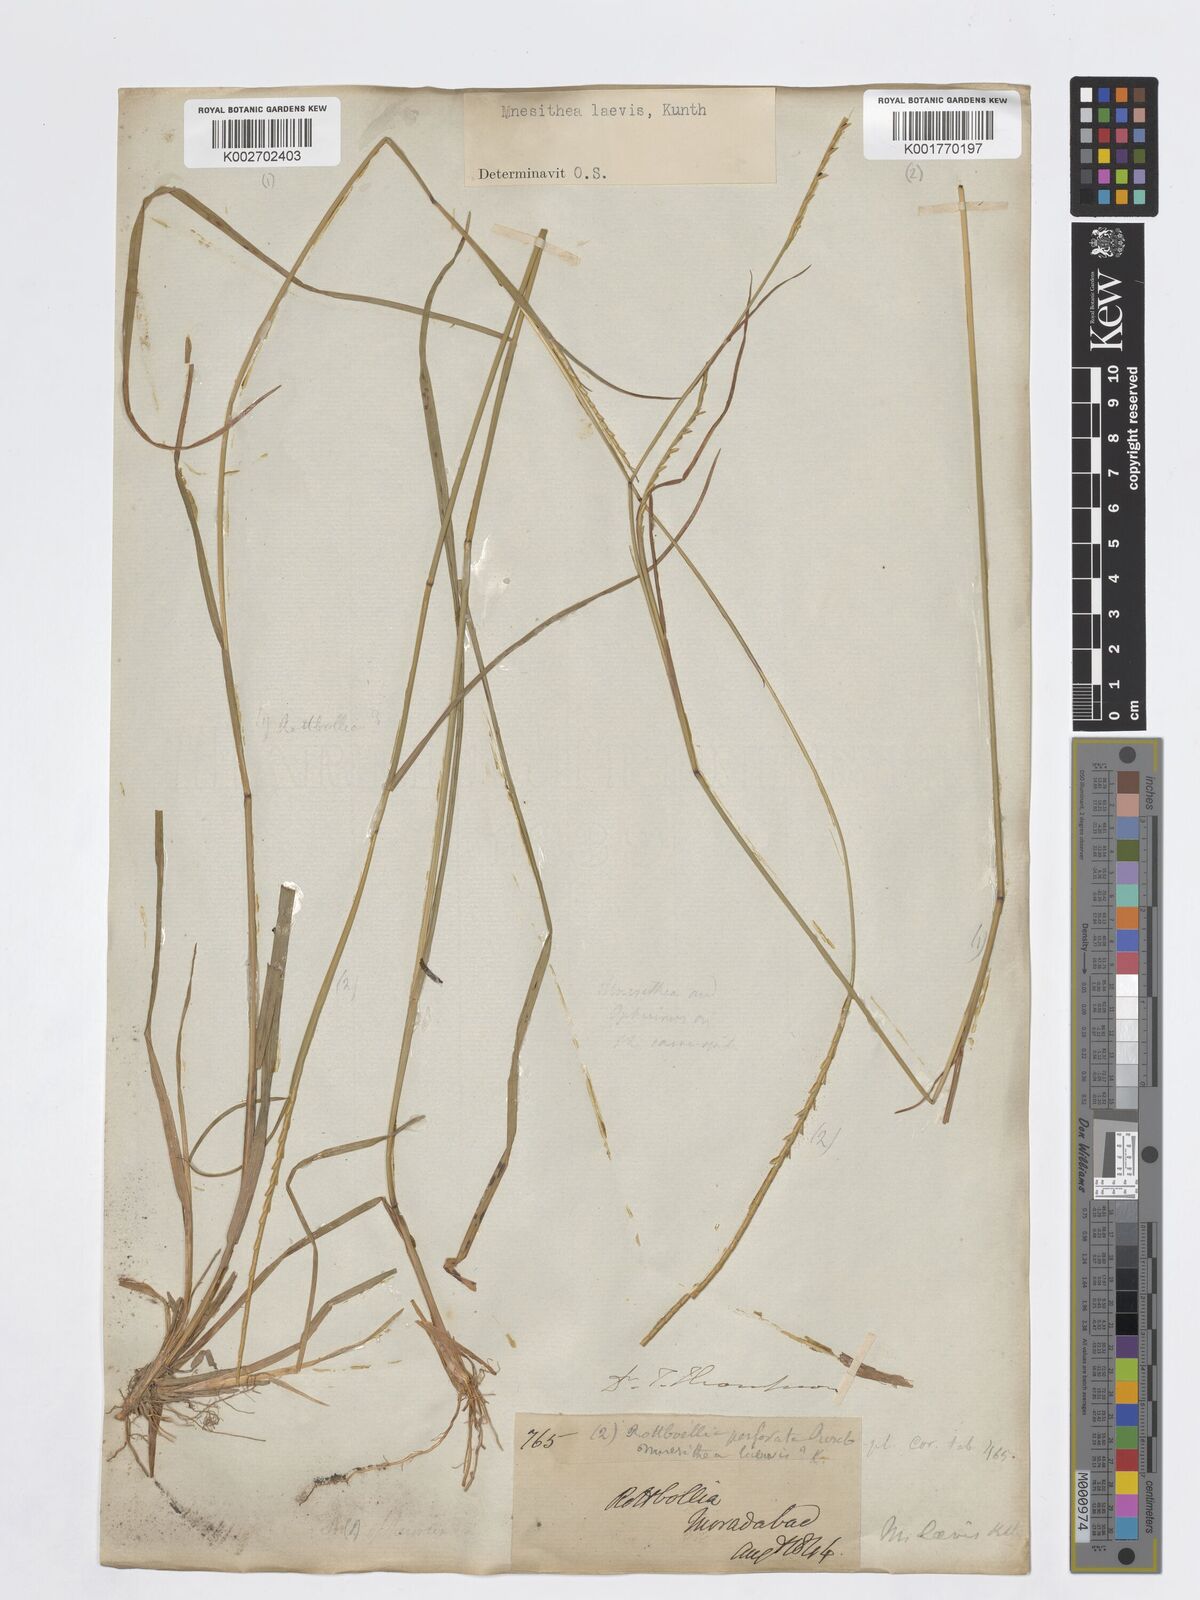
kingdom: Plantae
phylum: Tracheophyta
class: Liliopsida
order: Poales
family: Poaceae
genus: Mnesithea
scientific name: Mnesithea laevis
